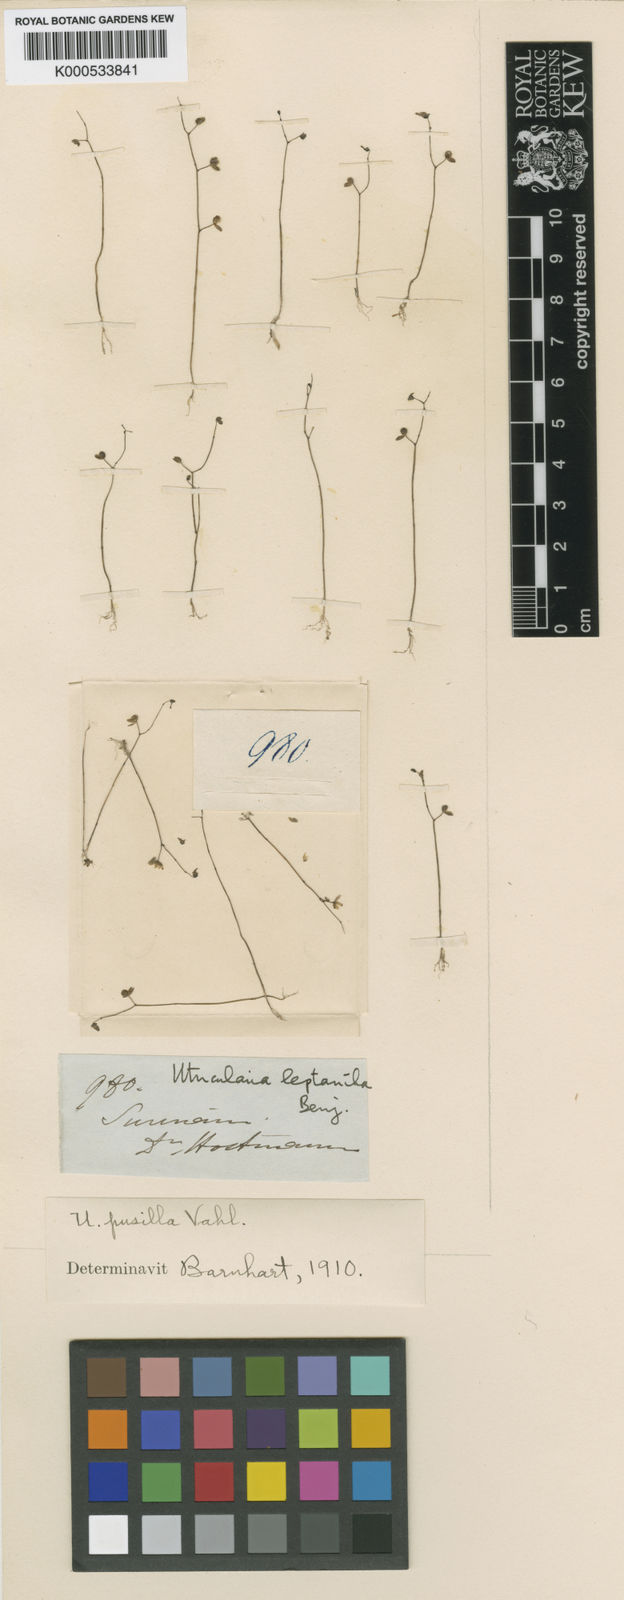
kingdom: Plantae
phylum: Tracheophyta
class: Magnoliopsida
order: Lamiales
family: Lentibulariaceae
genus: Utricularia
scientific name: Utricularia pusilla
